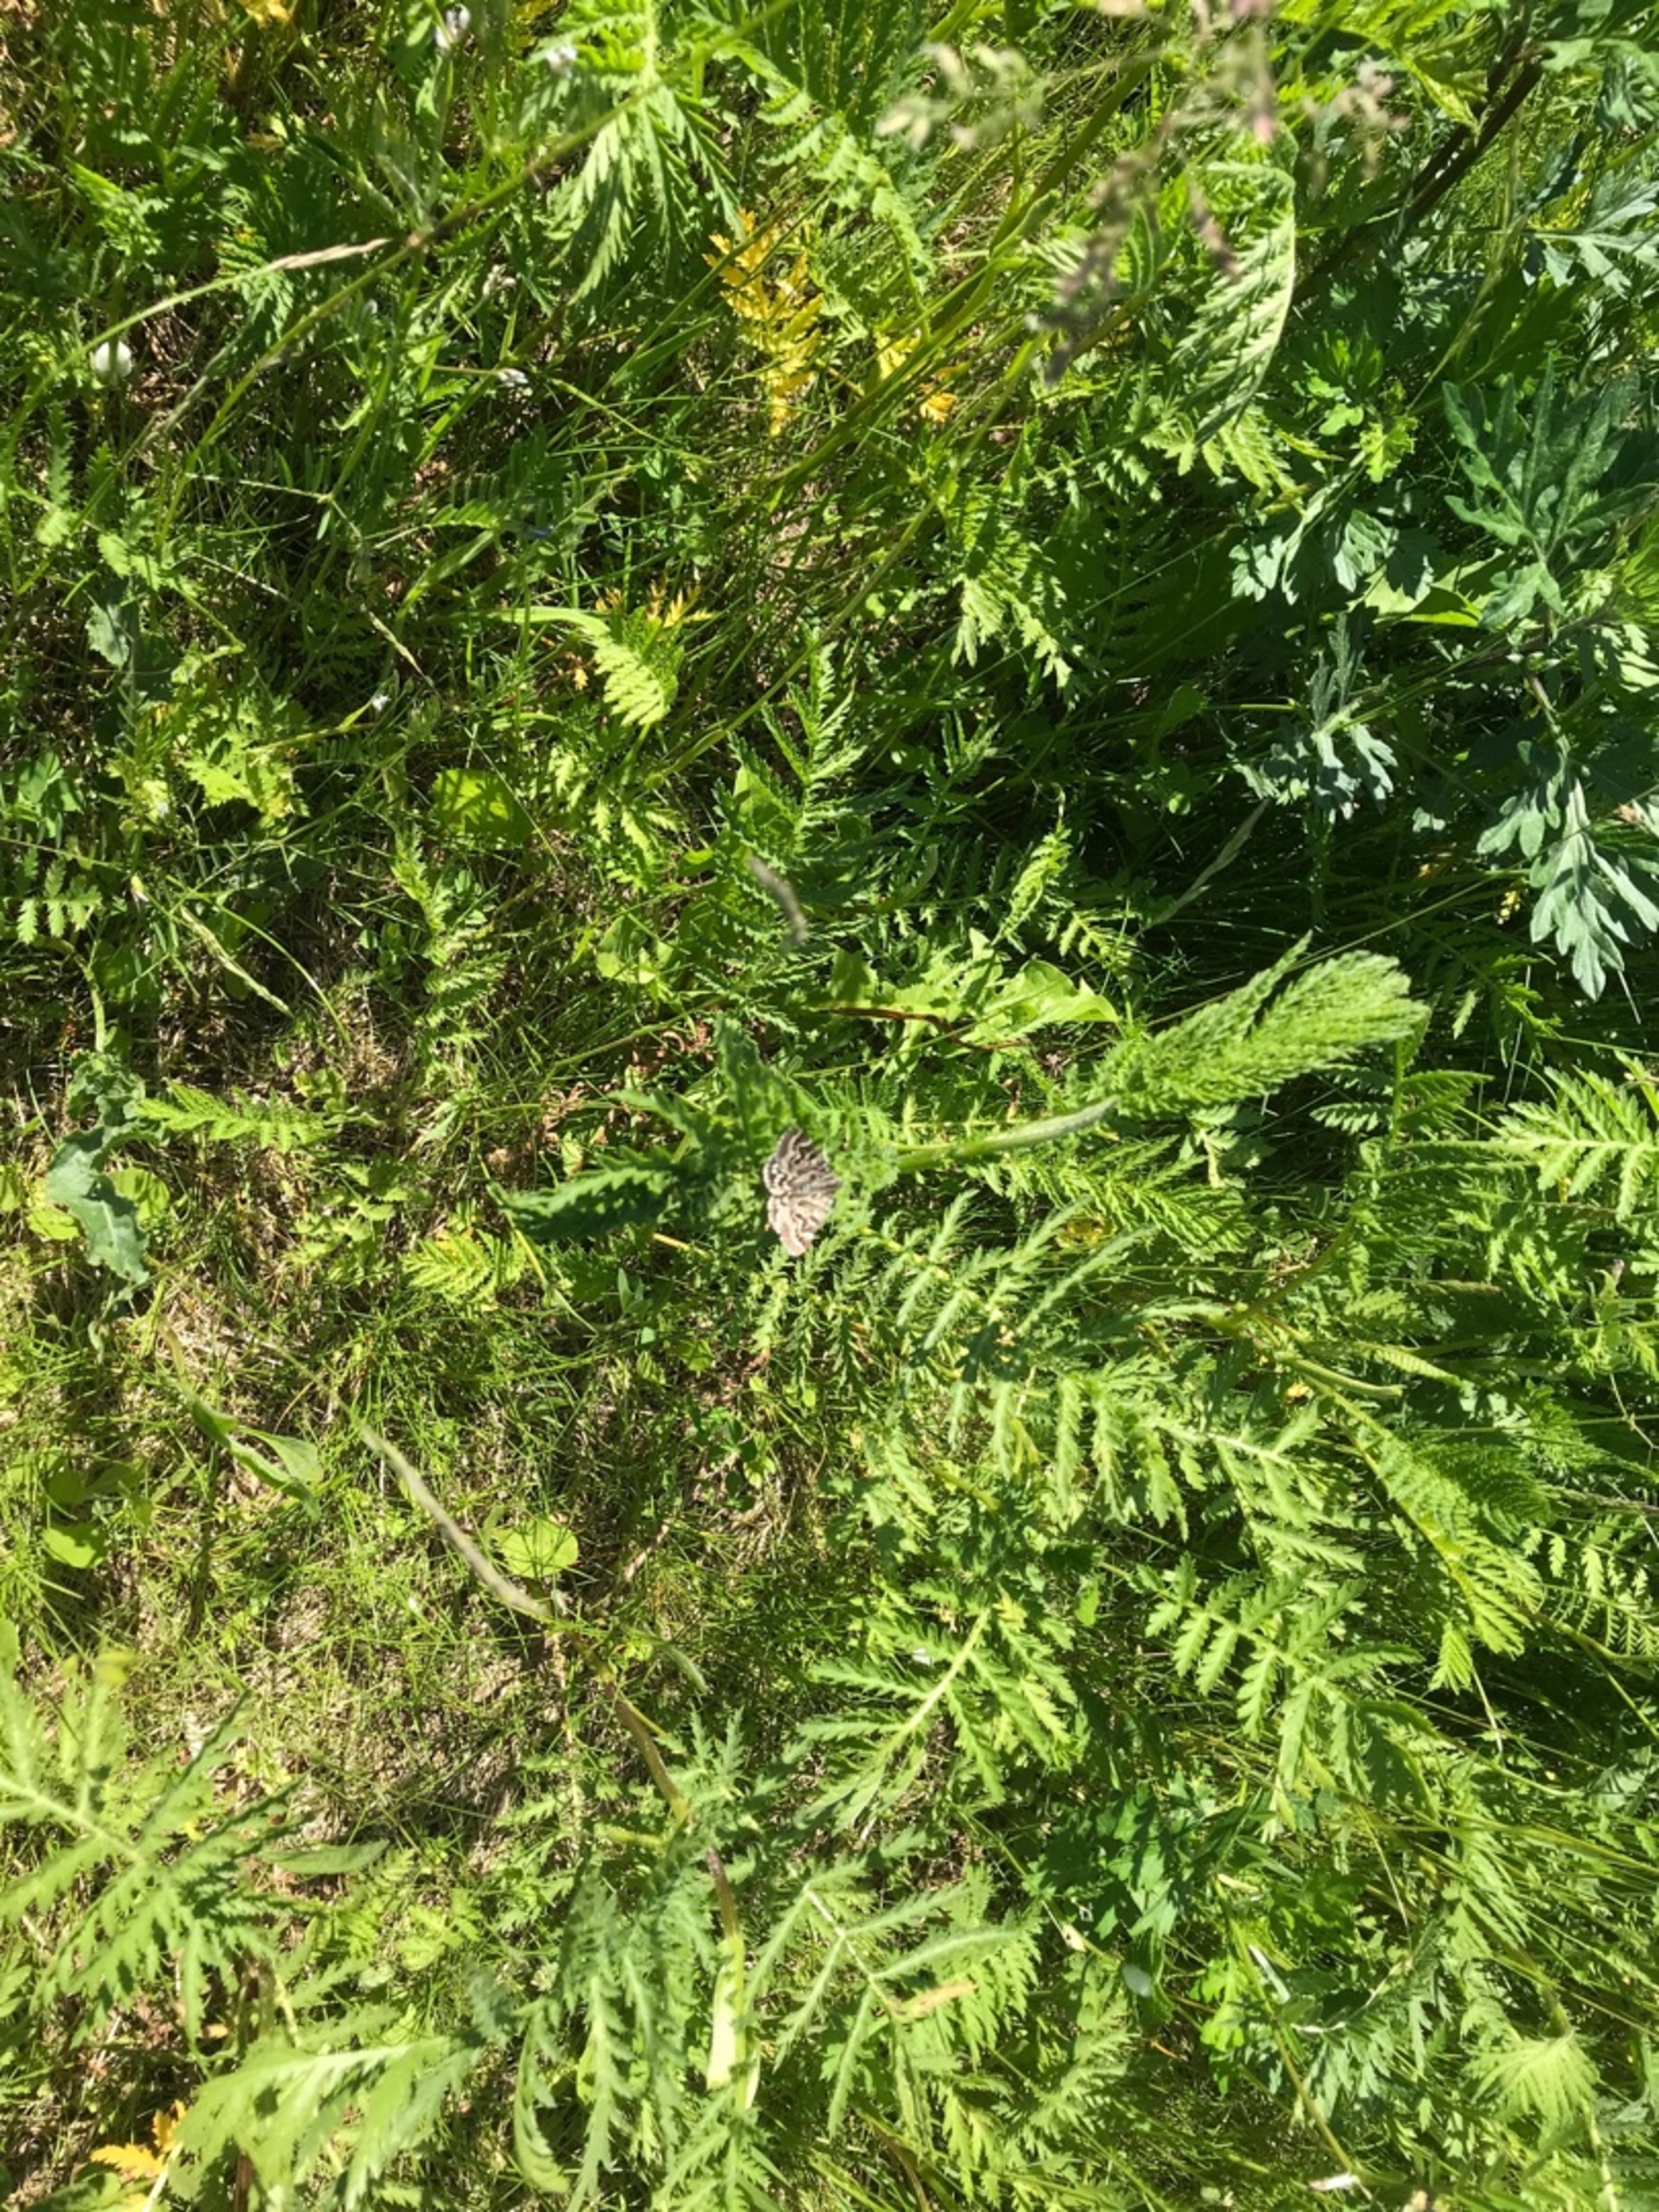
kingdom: Animalia
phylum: Arthropoda
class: Insecta
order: Lepidoptera
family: Erebidae
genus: Callistege
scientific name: Callistege mi
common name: Marmoreret kløverugle
